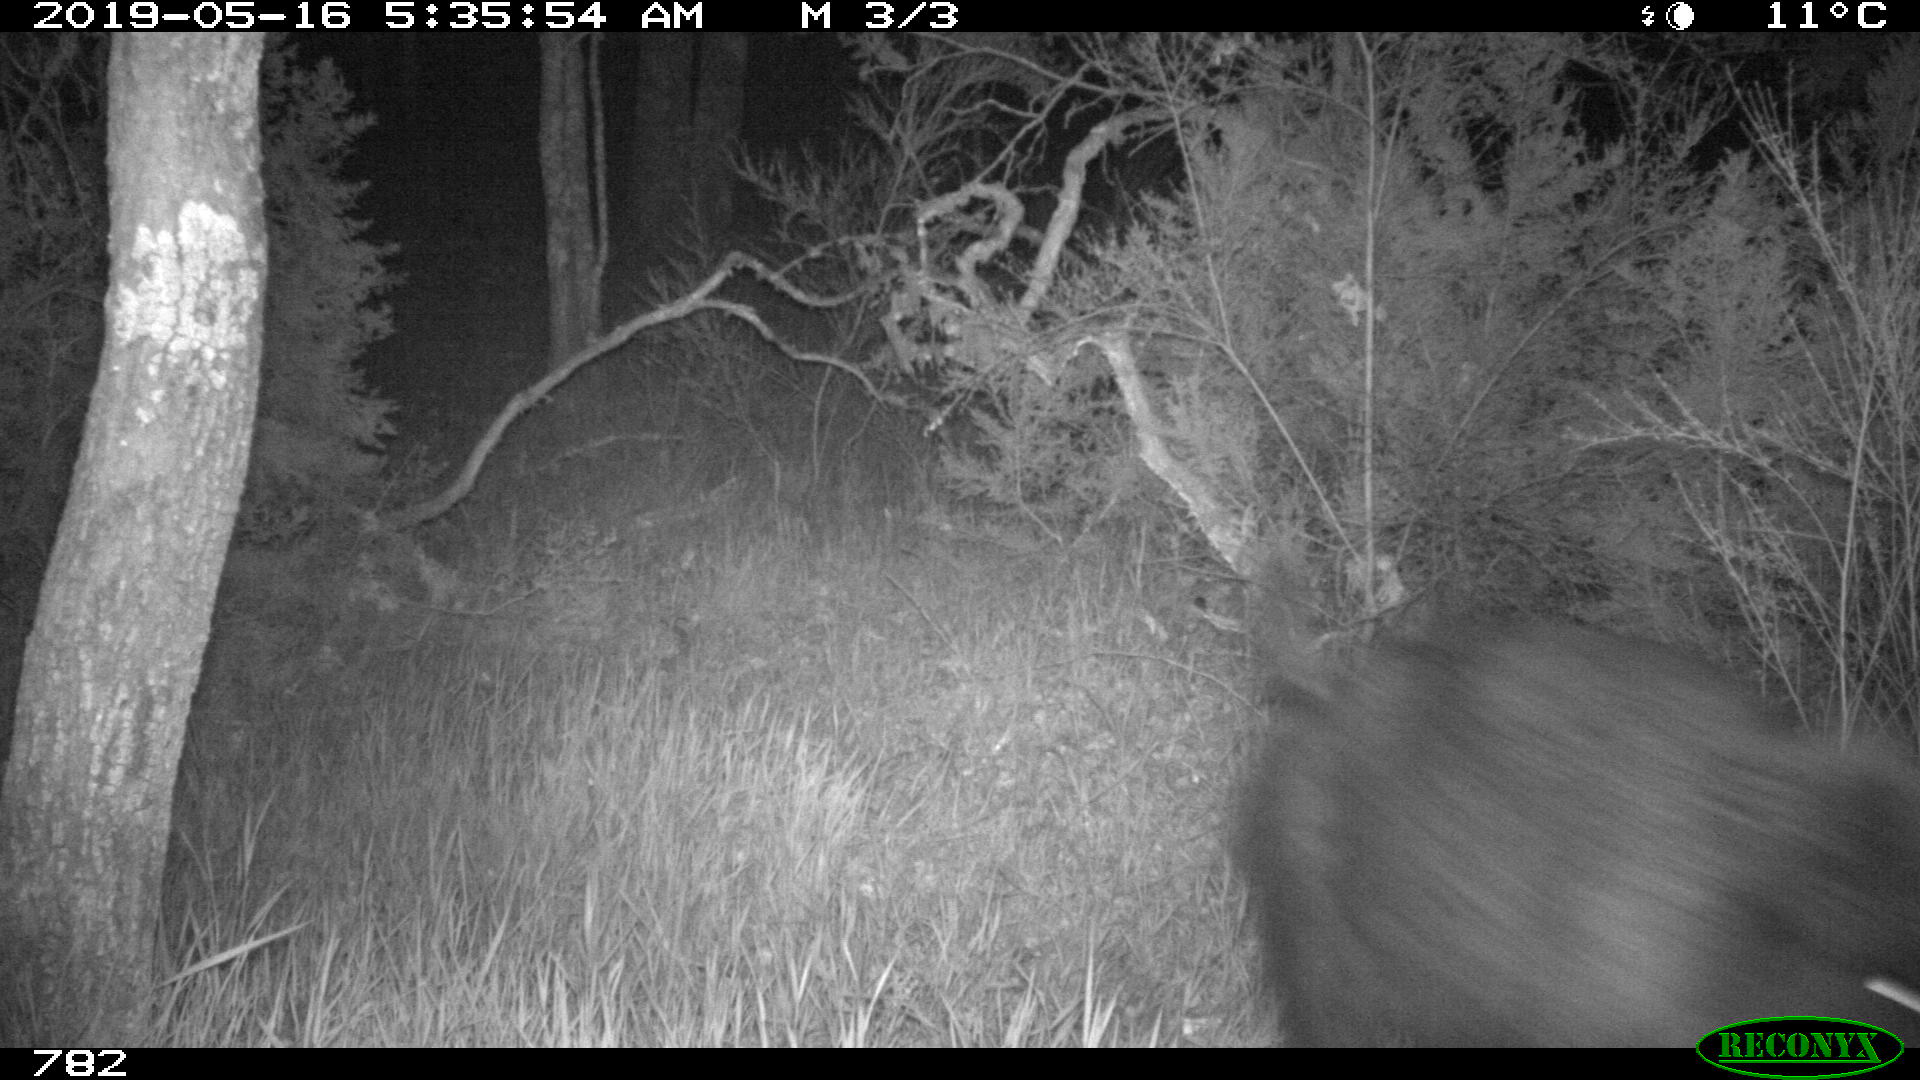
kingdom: Animalia
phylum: Chordata
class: Mammalia
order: Artiodactyla
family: Suidae
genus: Sus
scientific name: Sus scrofa
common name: Wild boar
